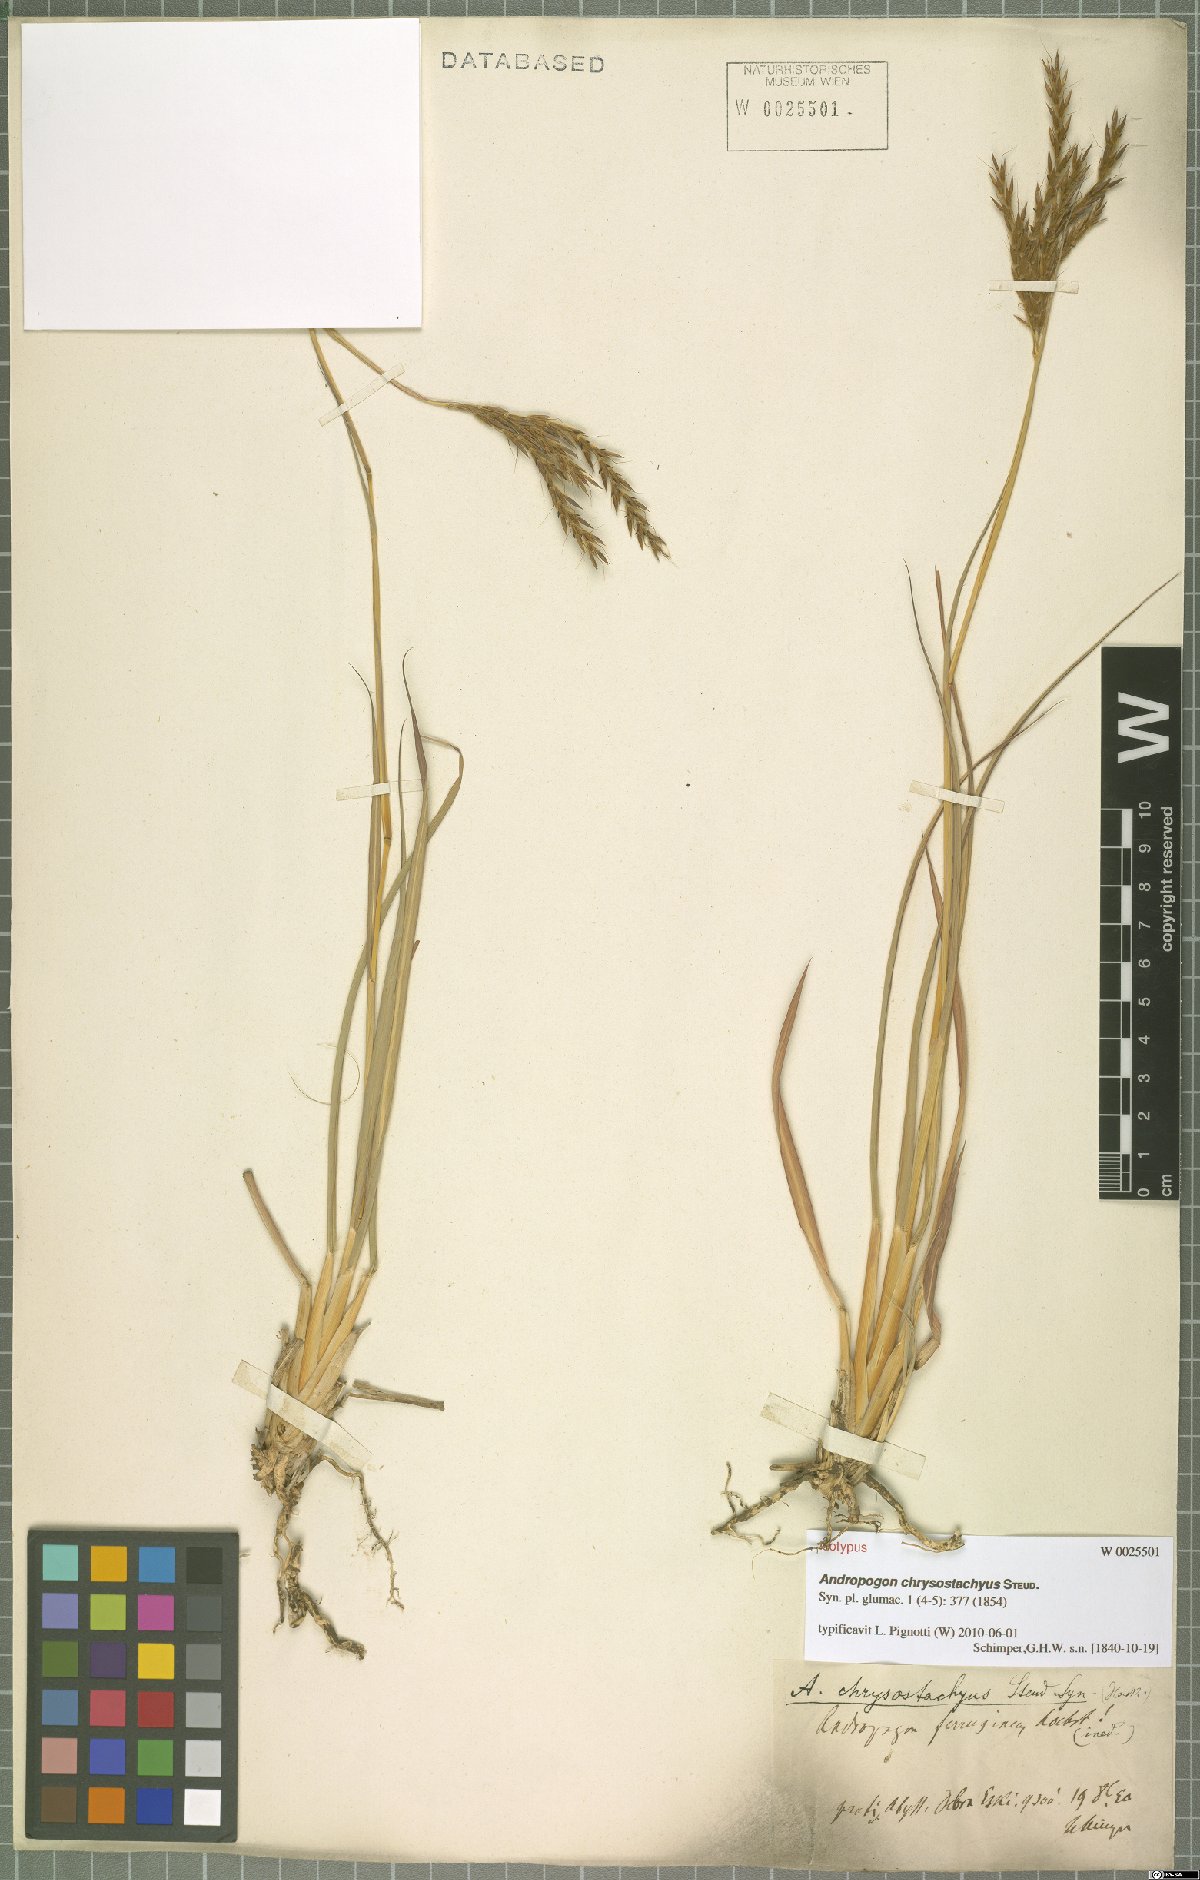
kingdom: Plantae
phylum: Tracheophyta
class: Liliopsida
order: Poales
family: Poaceae
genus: Andropogon
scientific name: Andropogon chrysostachyus
